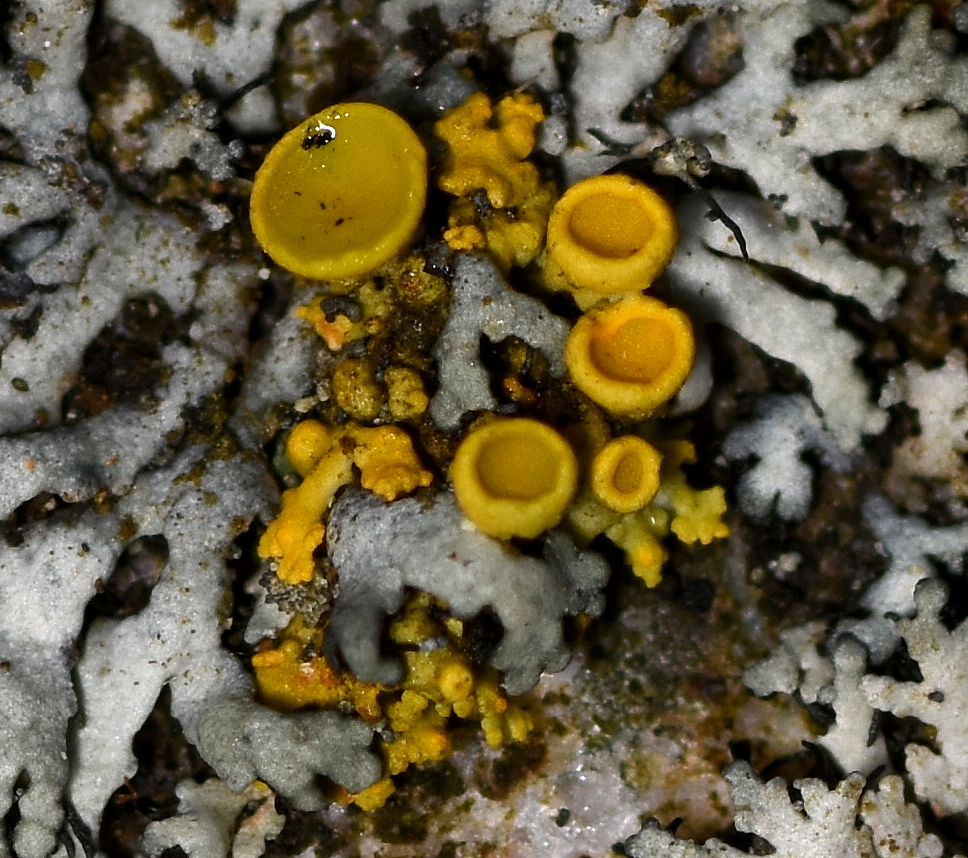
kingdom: Fungi
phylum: Ascomycota
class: Lecanoromycetes
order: Teloschistales
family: Teloschistaceae
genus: Polycauliona
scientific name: Polycauliona polycarpa
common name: mangefrugtet orangelav
